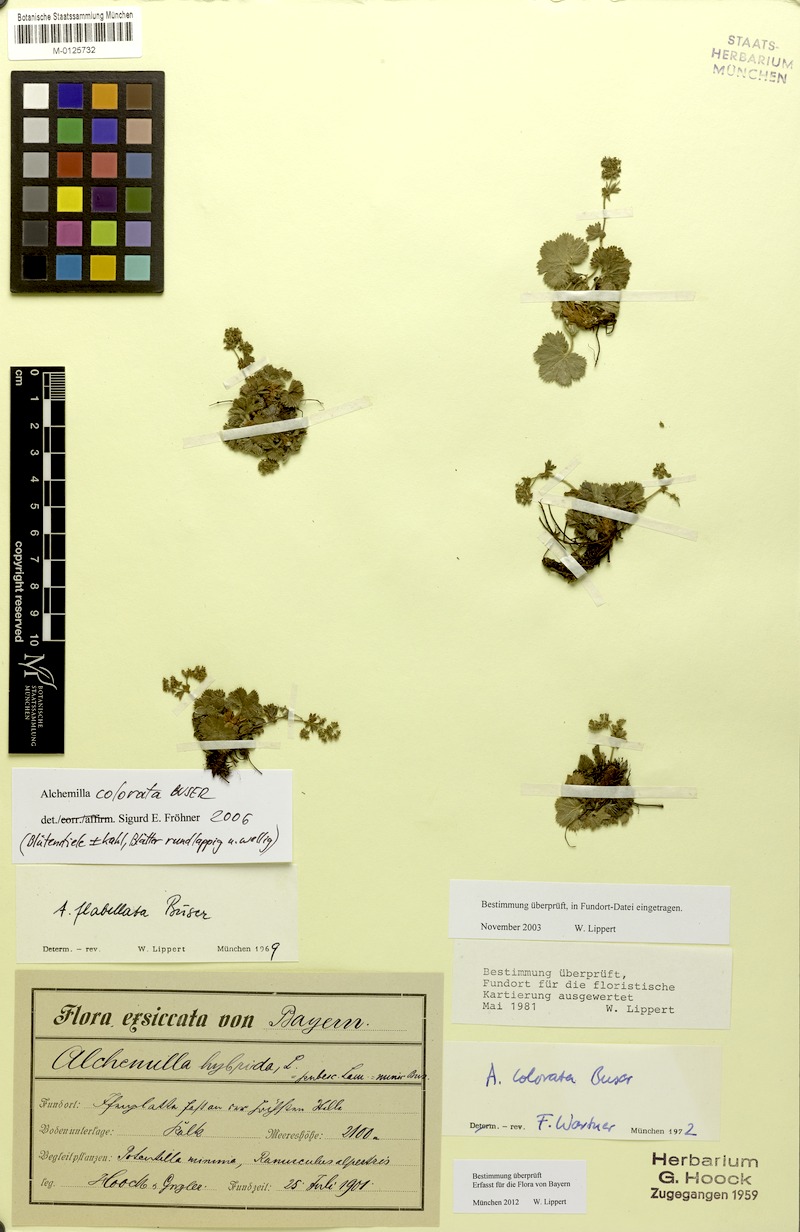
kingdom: Plantae
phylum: Tracheophyta
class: Magnoliopsida
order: Rosales
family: Rosaceae
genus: Alchemilla
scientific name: Alchemilla colorata
